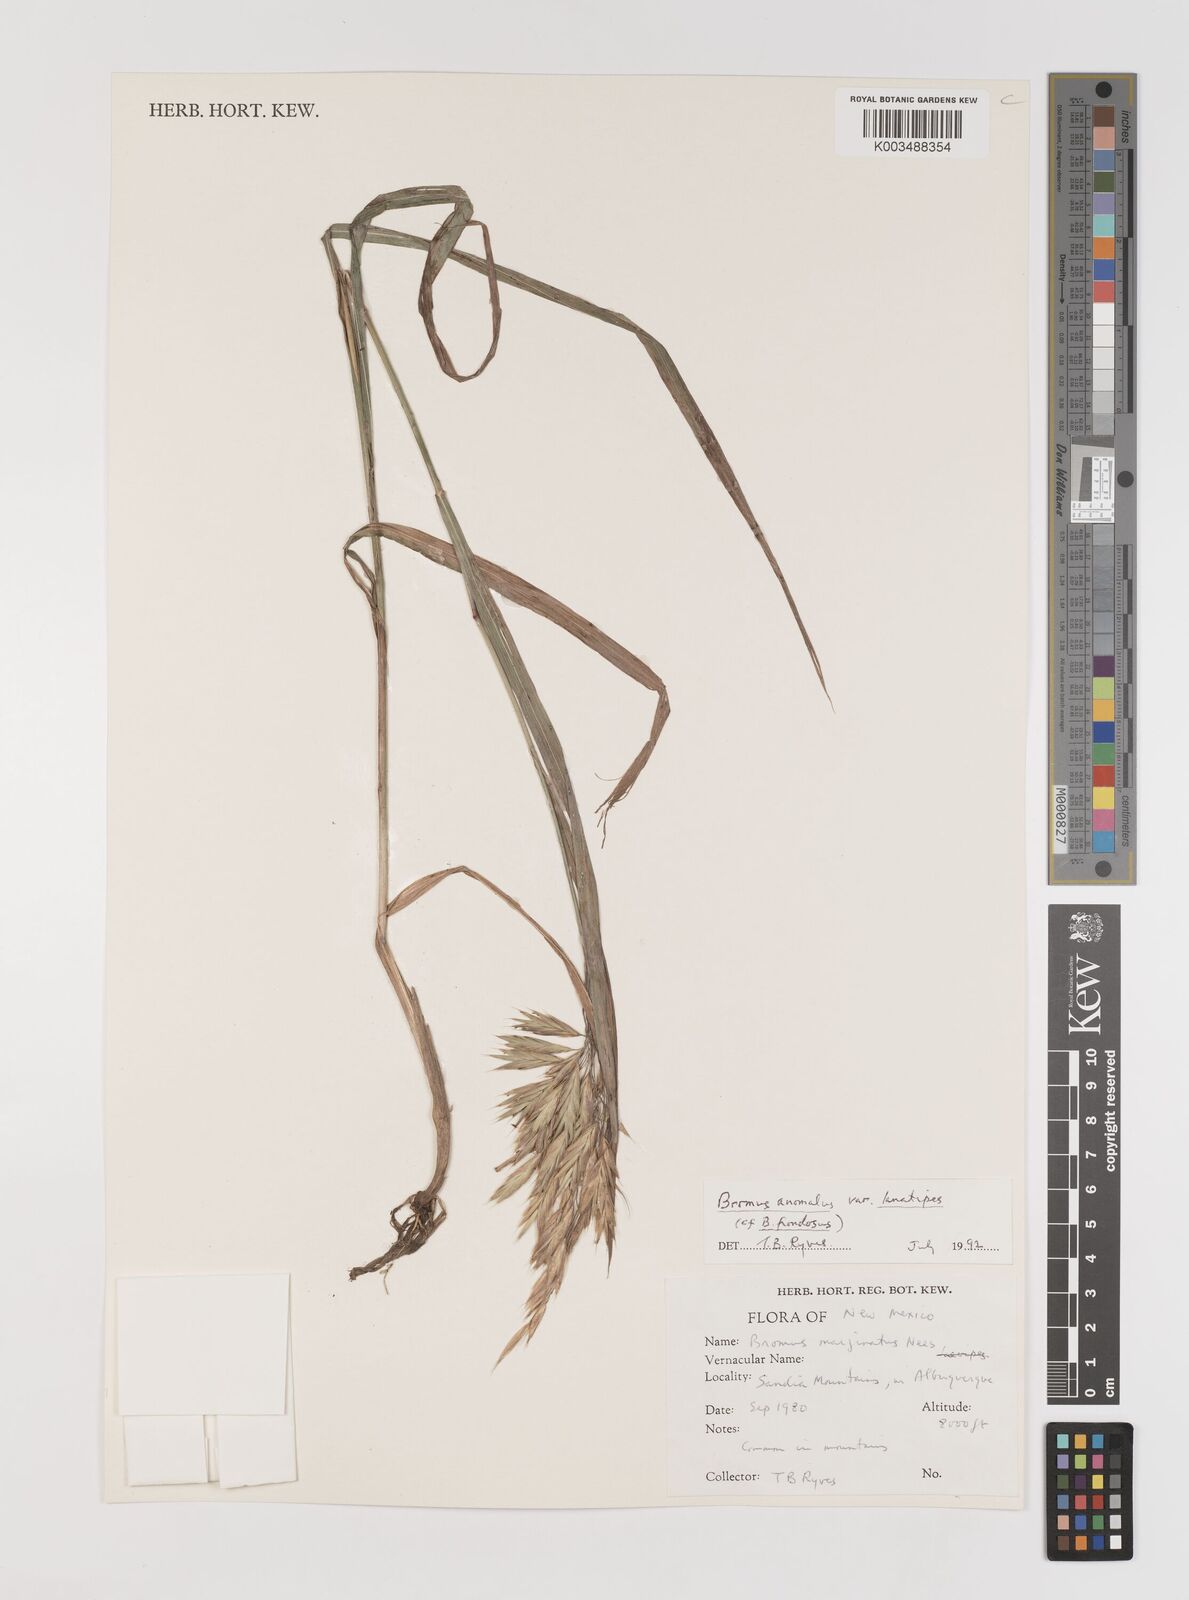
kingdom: Plantae
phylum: Tracheophyta
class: Liliopsida
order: Poales
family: Poaceae
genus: Bromus
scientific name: Bromus lanatipes
